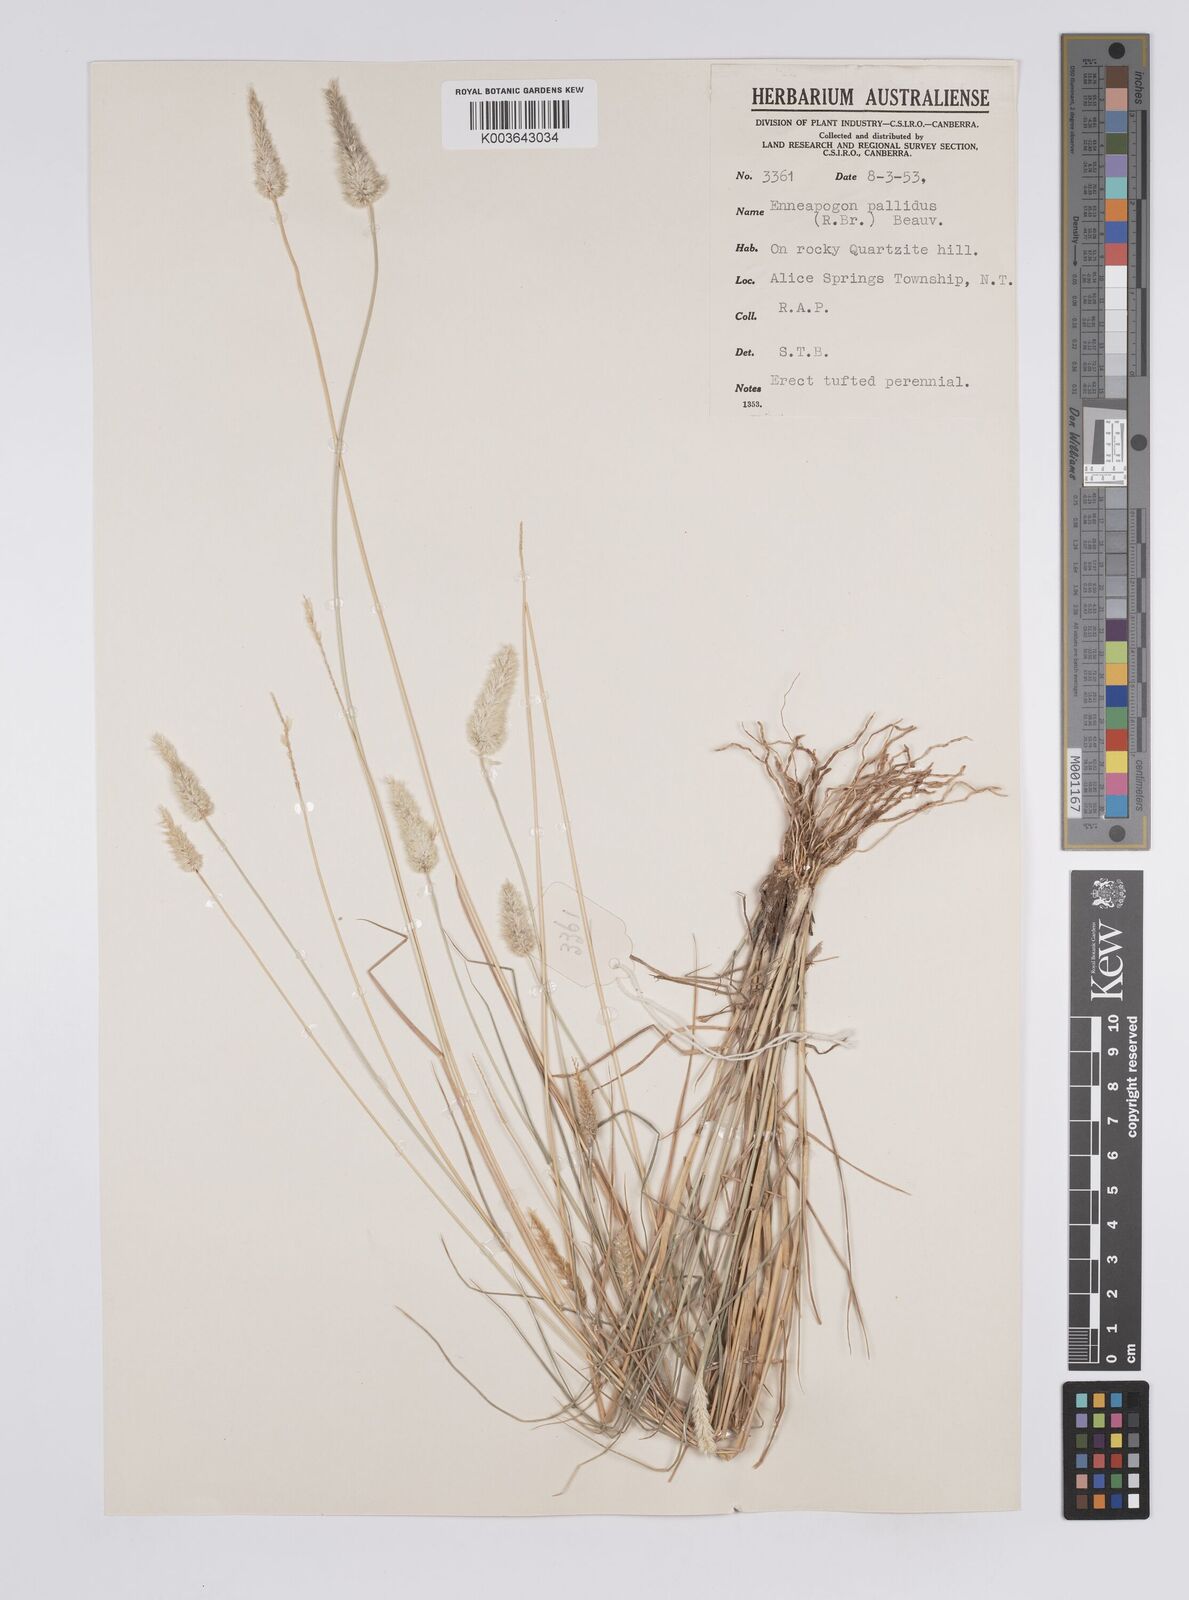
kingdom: Plantae
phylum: Tracheophyta
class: Liliopsida
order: Poales
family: Poaceae
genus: Enneapogon
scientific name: Enneapogon pallidus
